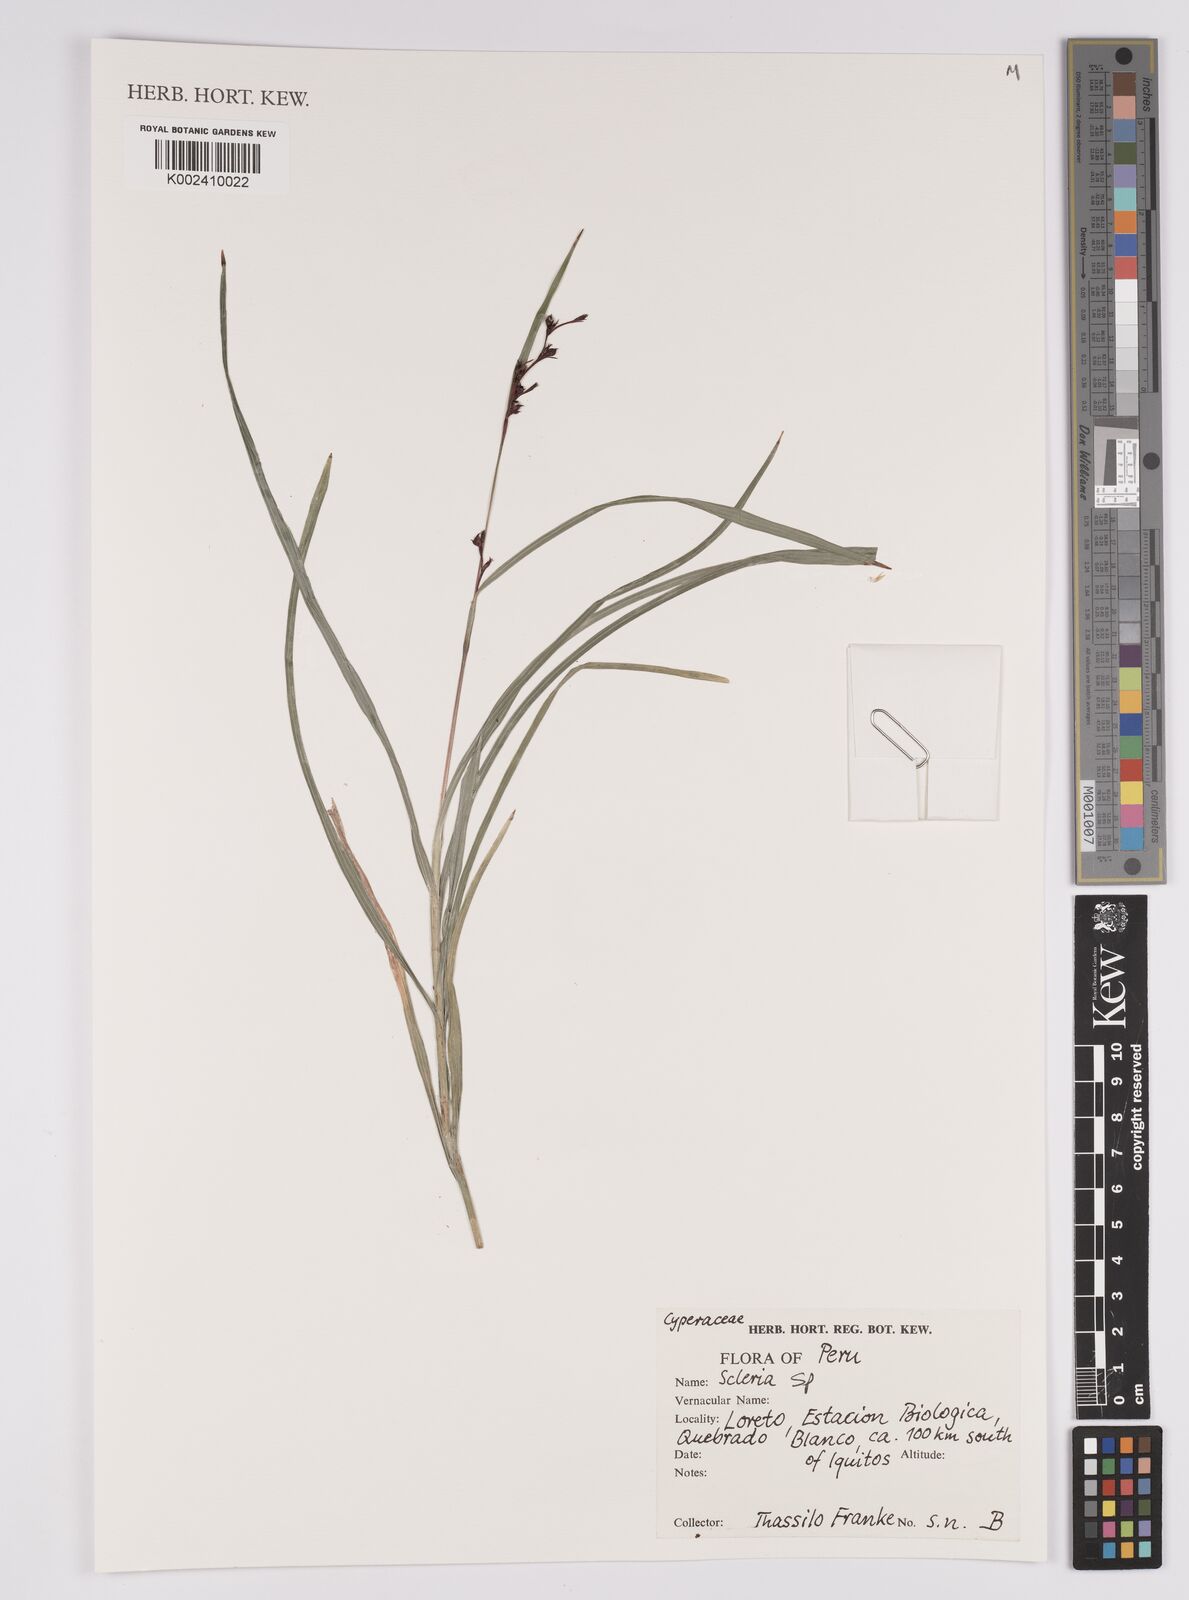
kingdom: Plantae
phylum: Tracheophyta
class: Liliopsida
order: Poales
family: Cyperaceae
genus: Scleria
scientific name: Scleria
